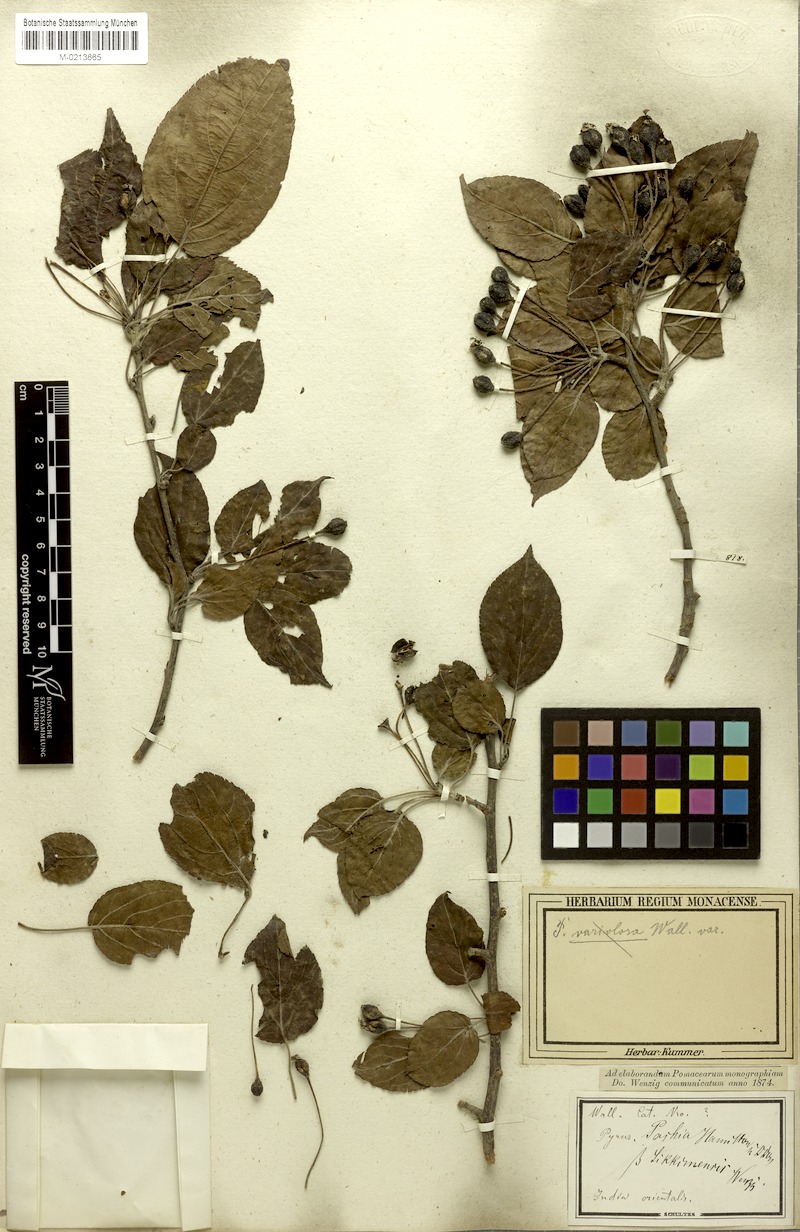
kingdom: Plantae
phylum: Tracheophyta
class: Magnoliopsida
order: Rosales
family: Rosaceae
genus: Malus
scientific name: Malus sikkimensis
